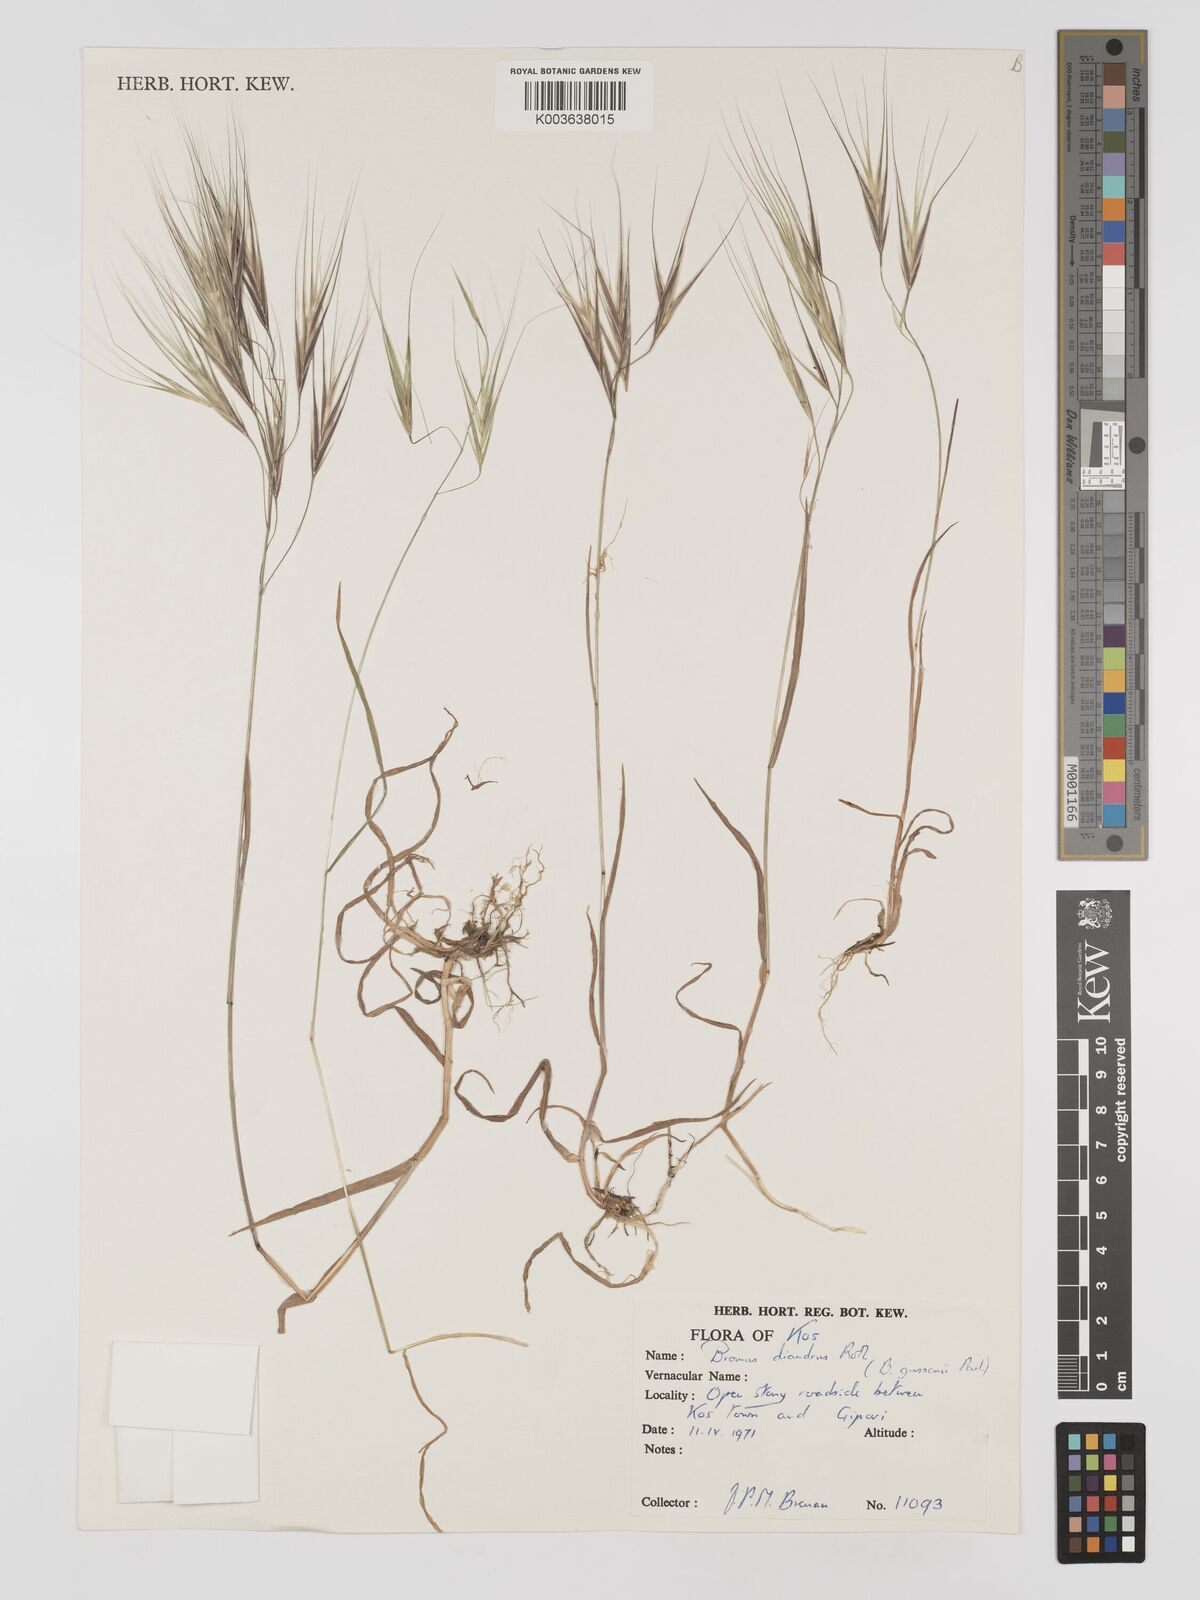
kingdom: Plantae
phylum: Tracheophyta
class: Liliopsida
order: Poales
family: Poaceae
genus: Bromus
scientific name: Bromus
